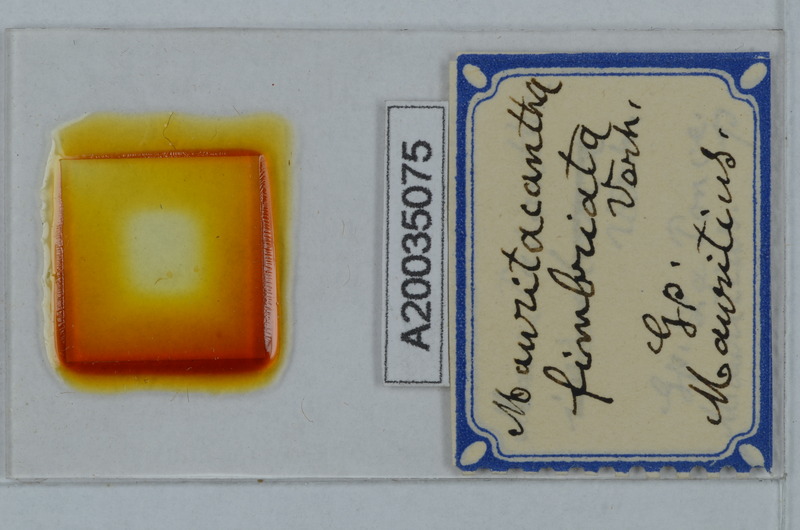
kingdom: Animalia
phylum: Arthropoda
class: Diplopoda
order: Polydesmida
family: Trichopolydesmidae
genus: Mauritacantha
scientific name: Mauritacantha fimbriata
